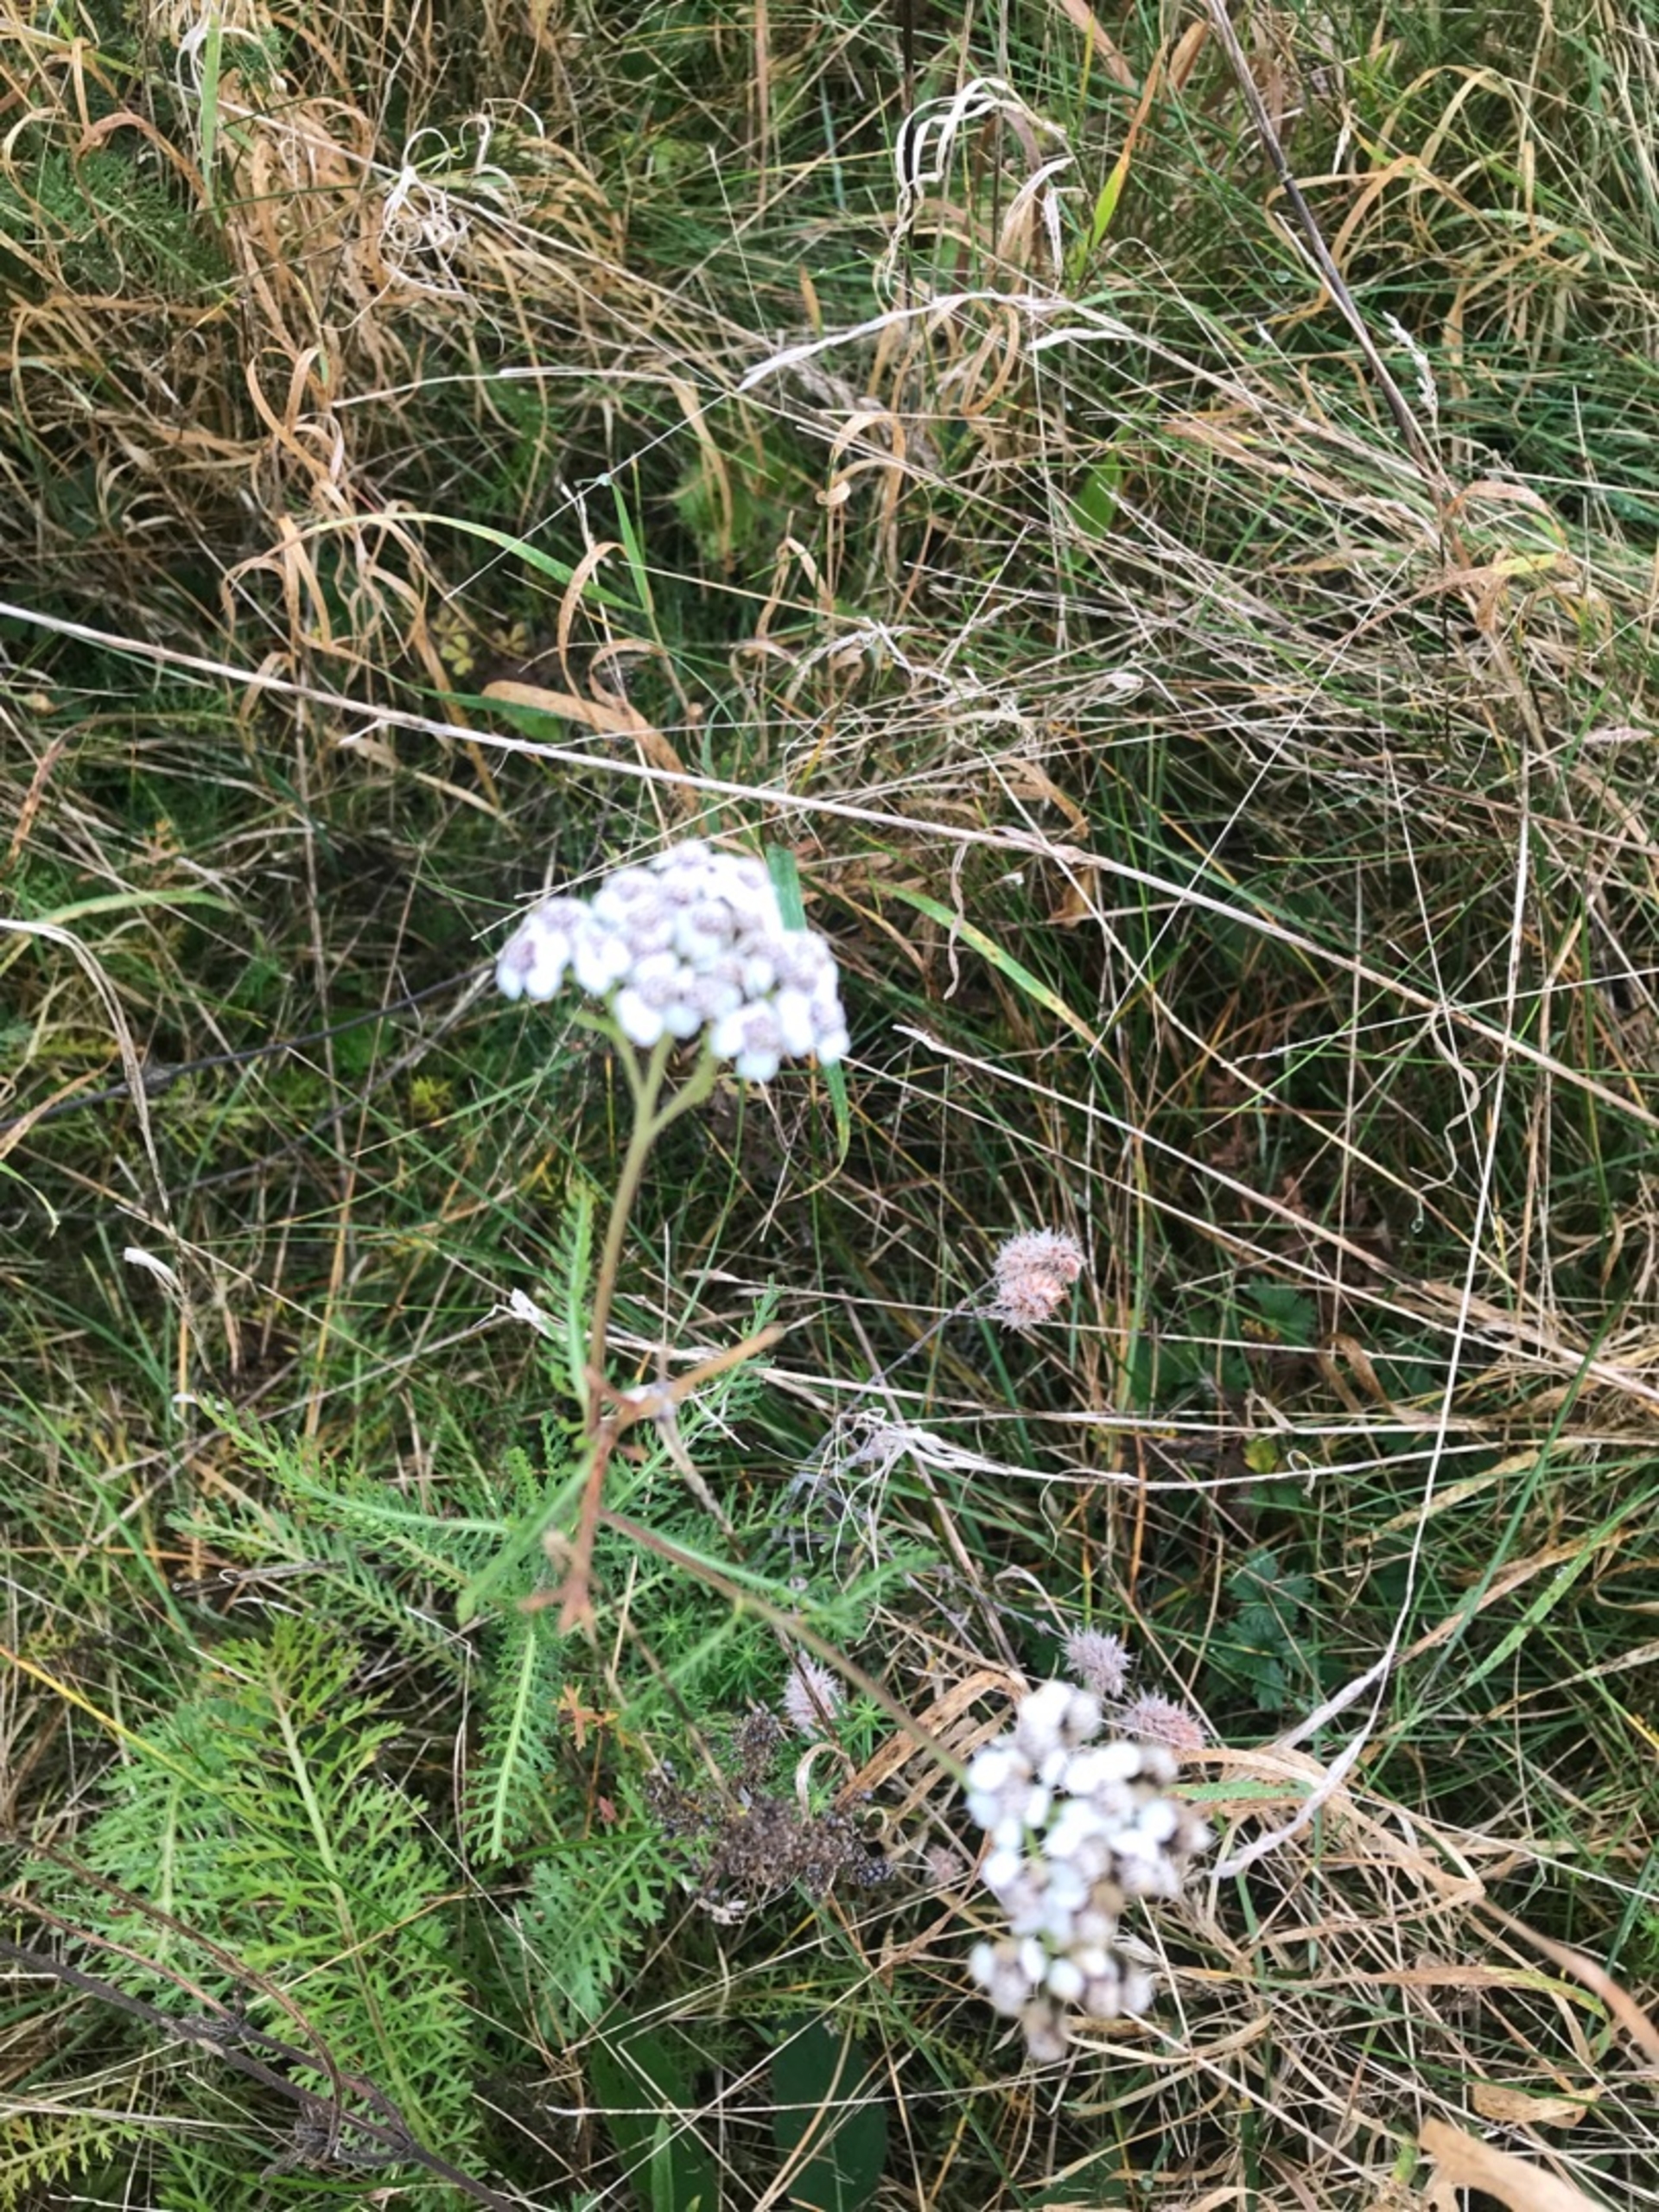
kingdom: Plantae
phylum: Tracheophyta
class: Magnoliopsida
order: Asterales
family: Asteraceae
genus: Achillea
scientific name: Achillea millefolium
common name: Almindelig røllike
